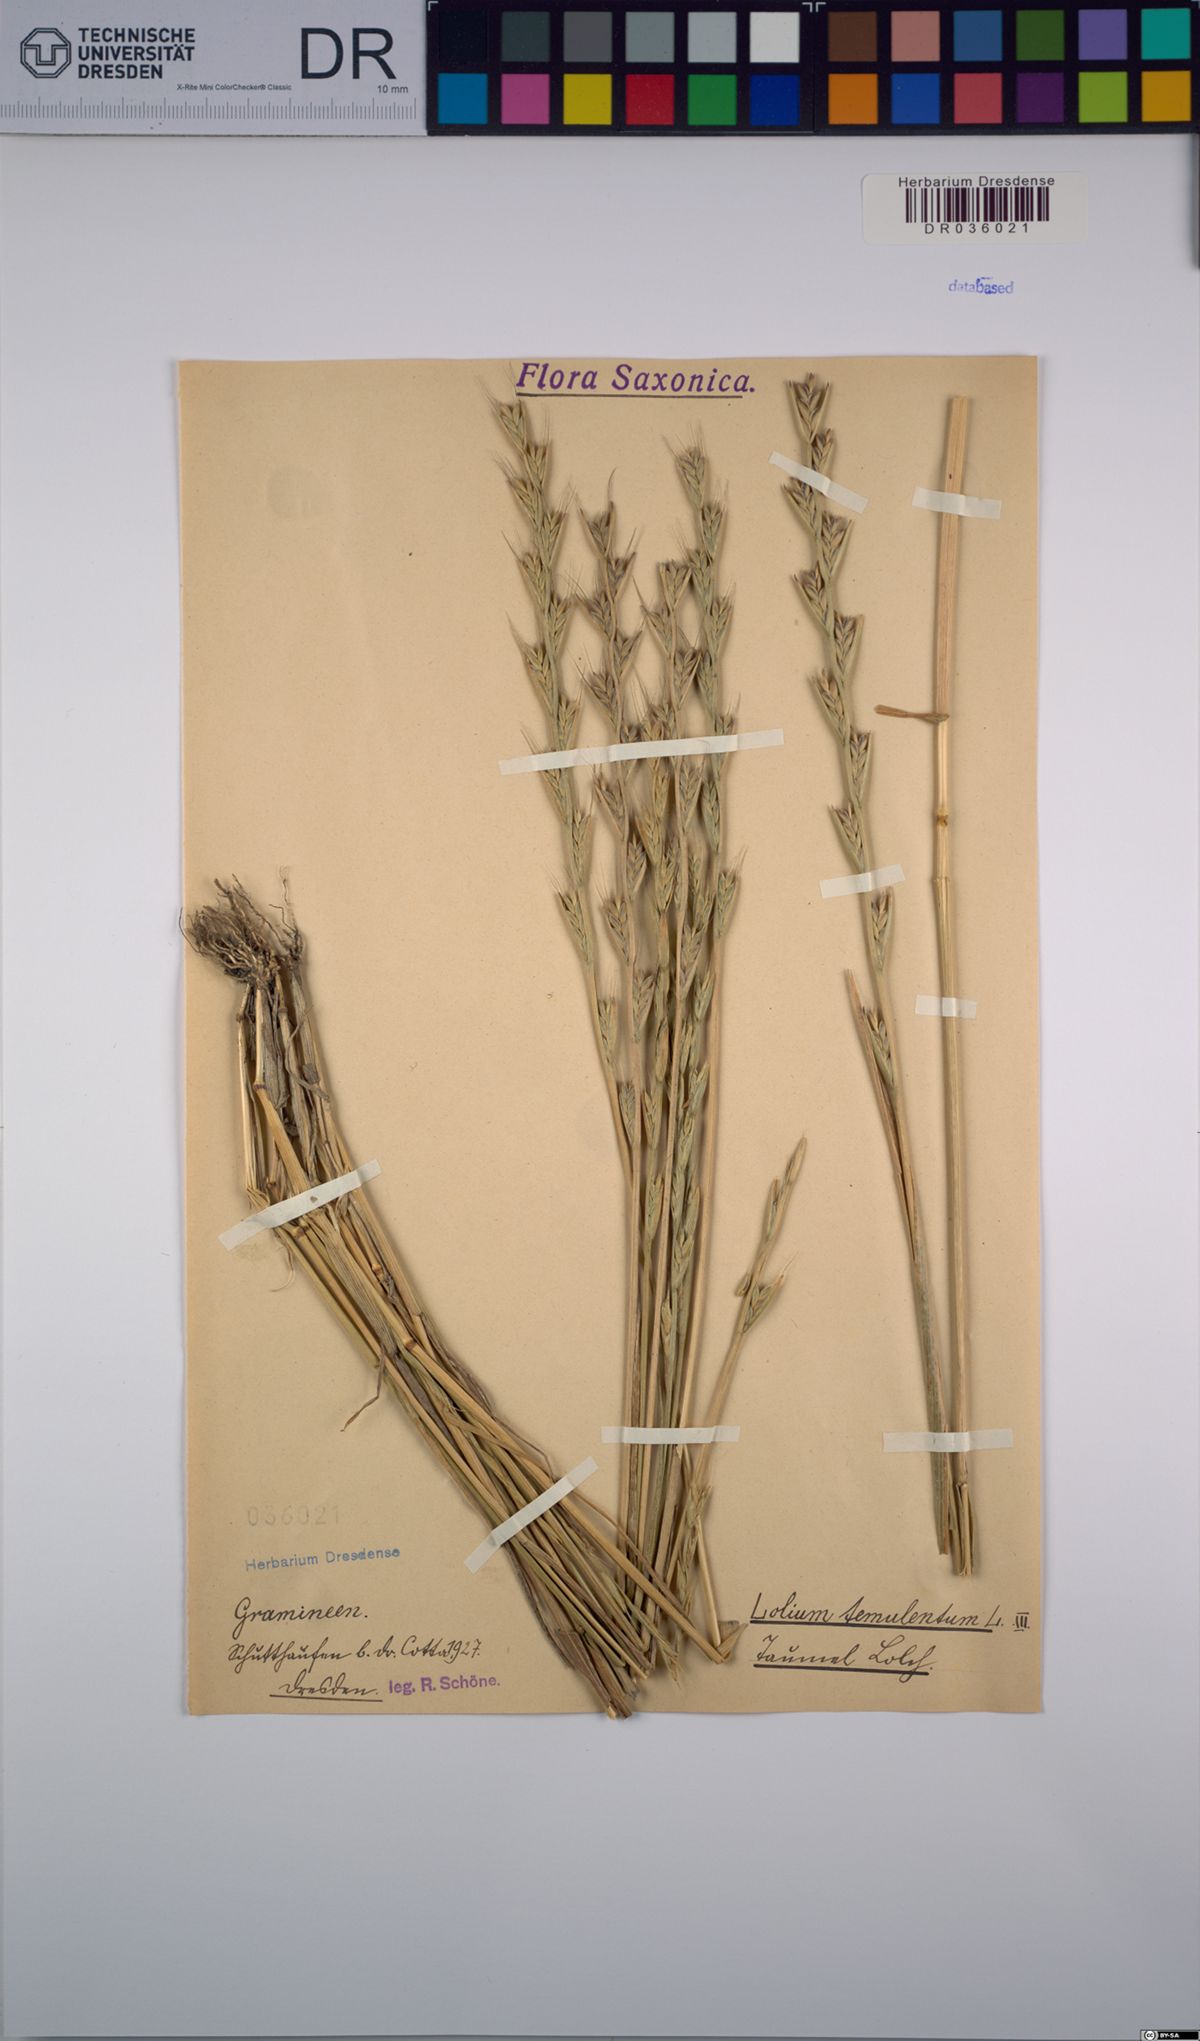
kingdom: Plantae
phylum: Tracheophyta
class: Liliopsida
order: Poales
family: Poaceae
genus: Lolium
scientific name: Lolium temulentum
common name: Darnel
